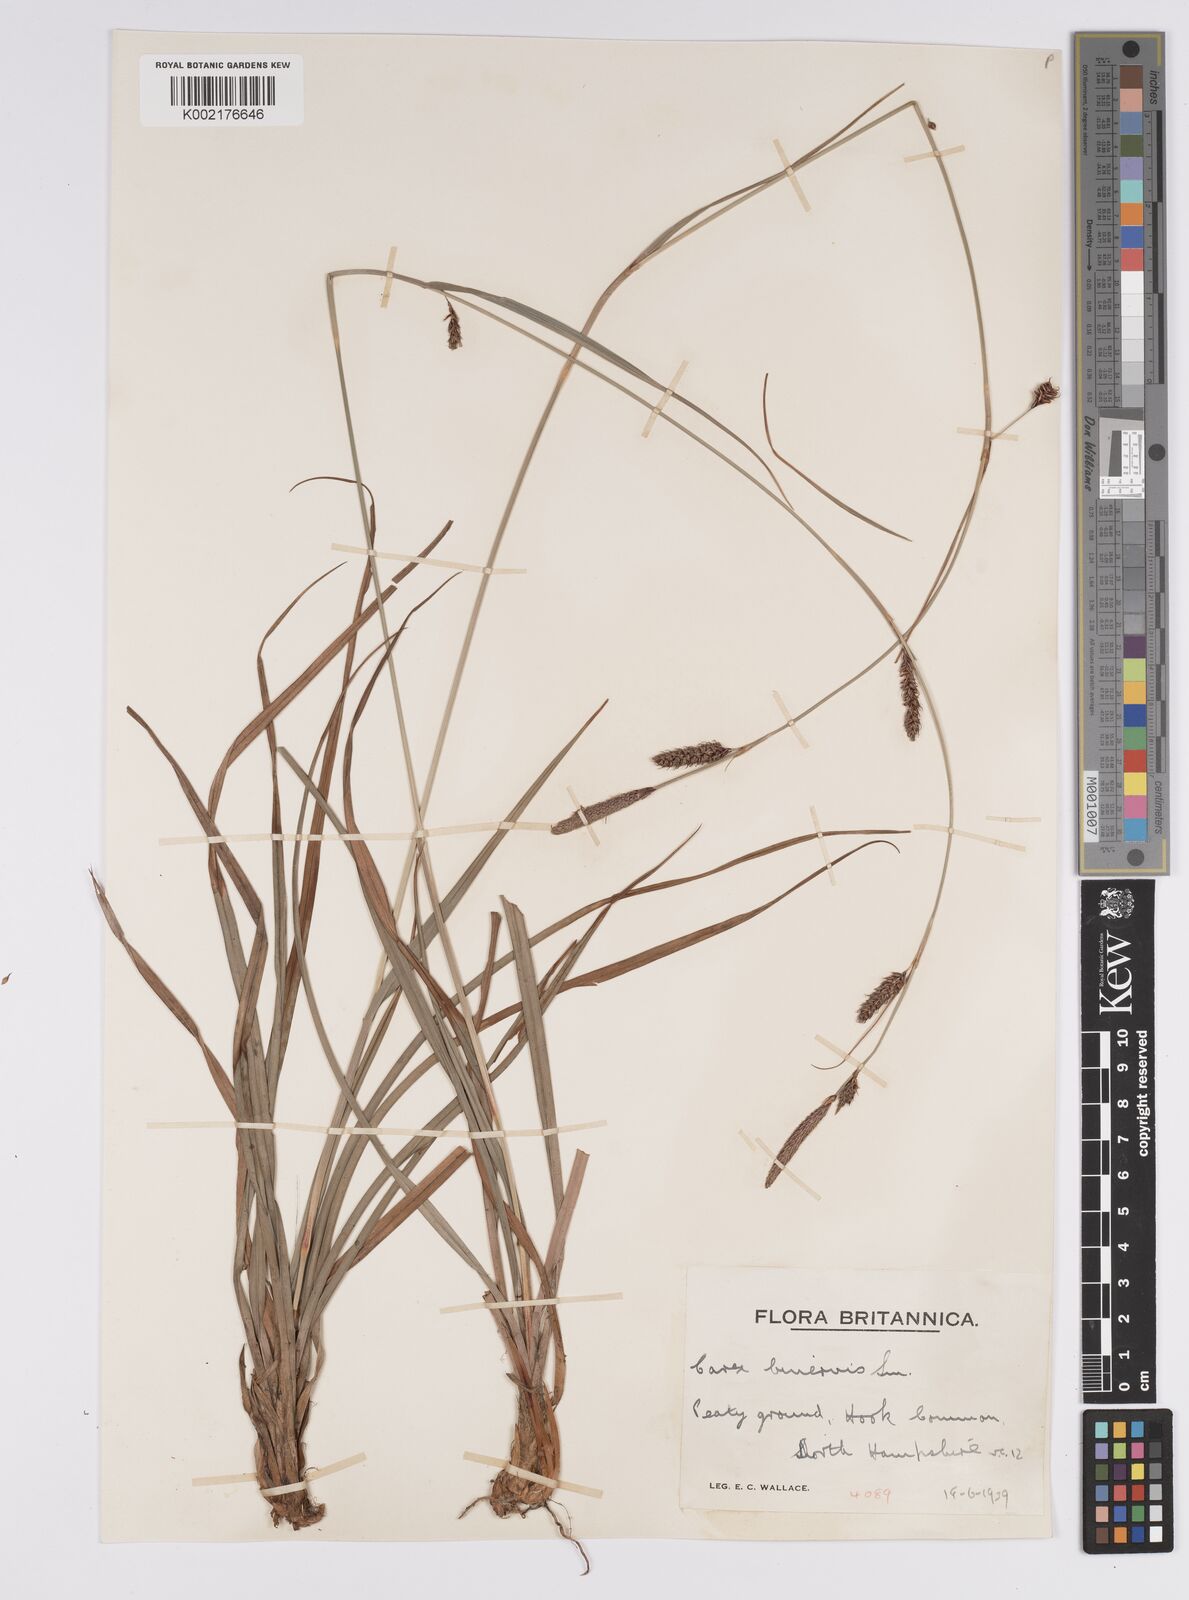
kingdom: Plantae
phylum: Tracheophyta
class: Liliopsida
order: Poales
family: Cyperaceae
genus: Carex
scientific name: Carex binervis
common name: Green-ribbed sedge
